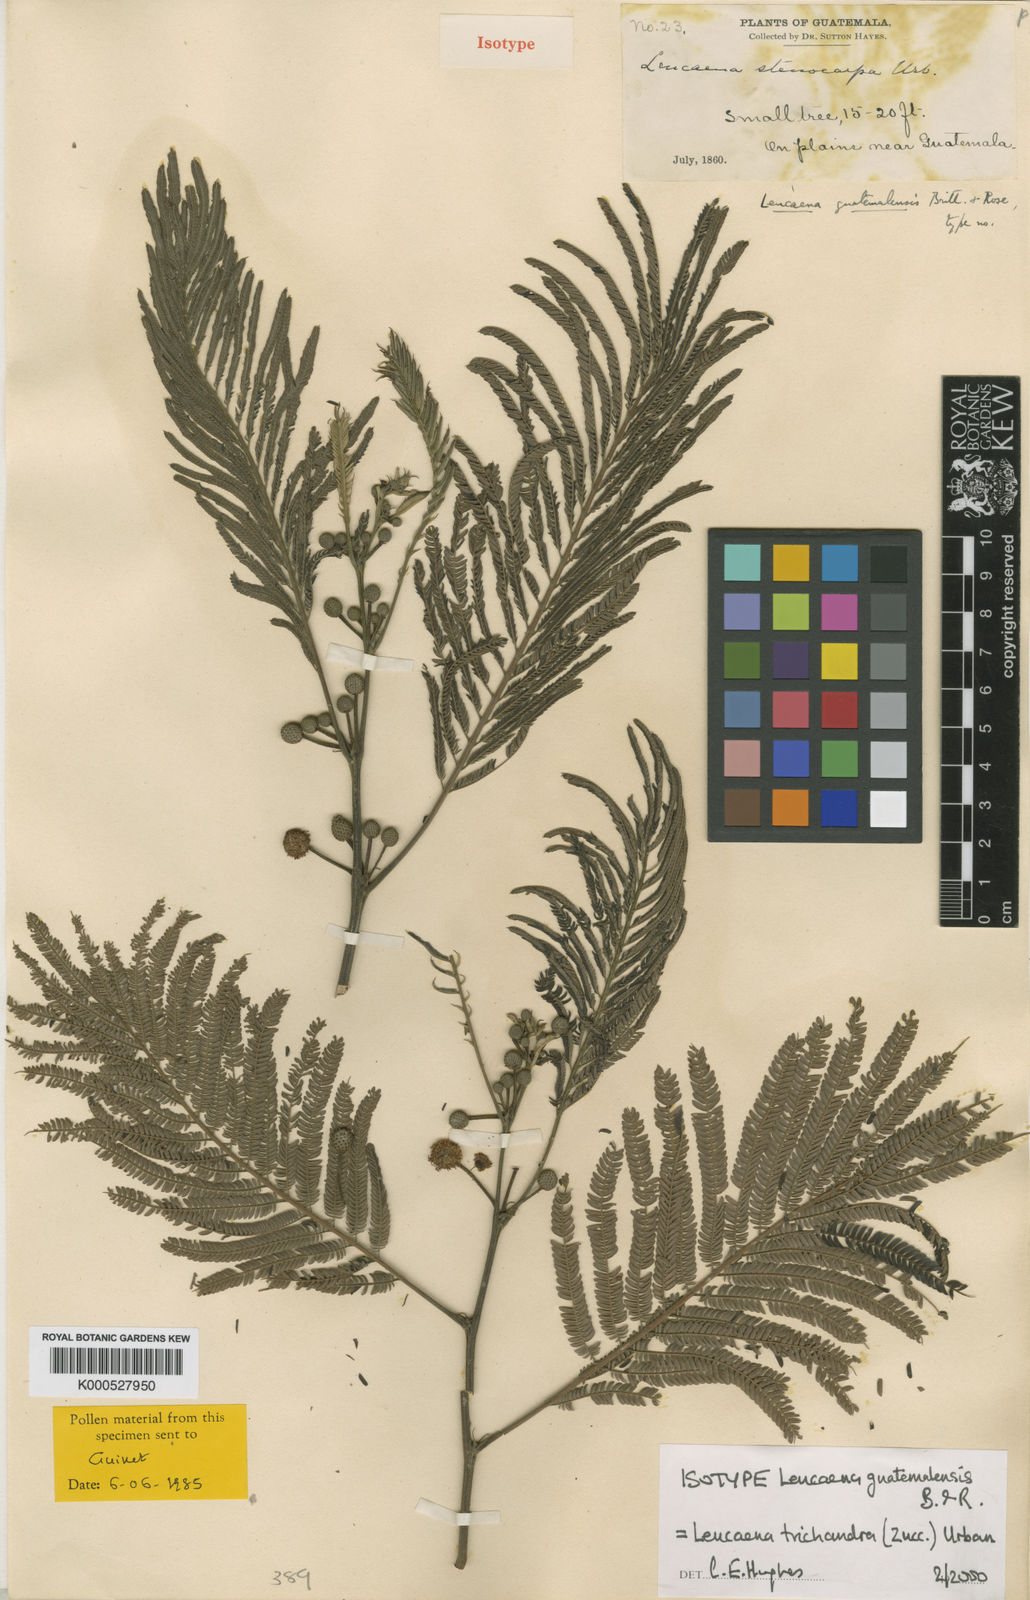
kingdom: Plantae
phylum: Tracheophyta
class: Magnoliopsida
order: Fabales
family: Fabaceae
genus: Leucaena
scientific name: Leucaena trichandra
